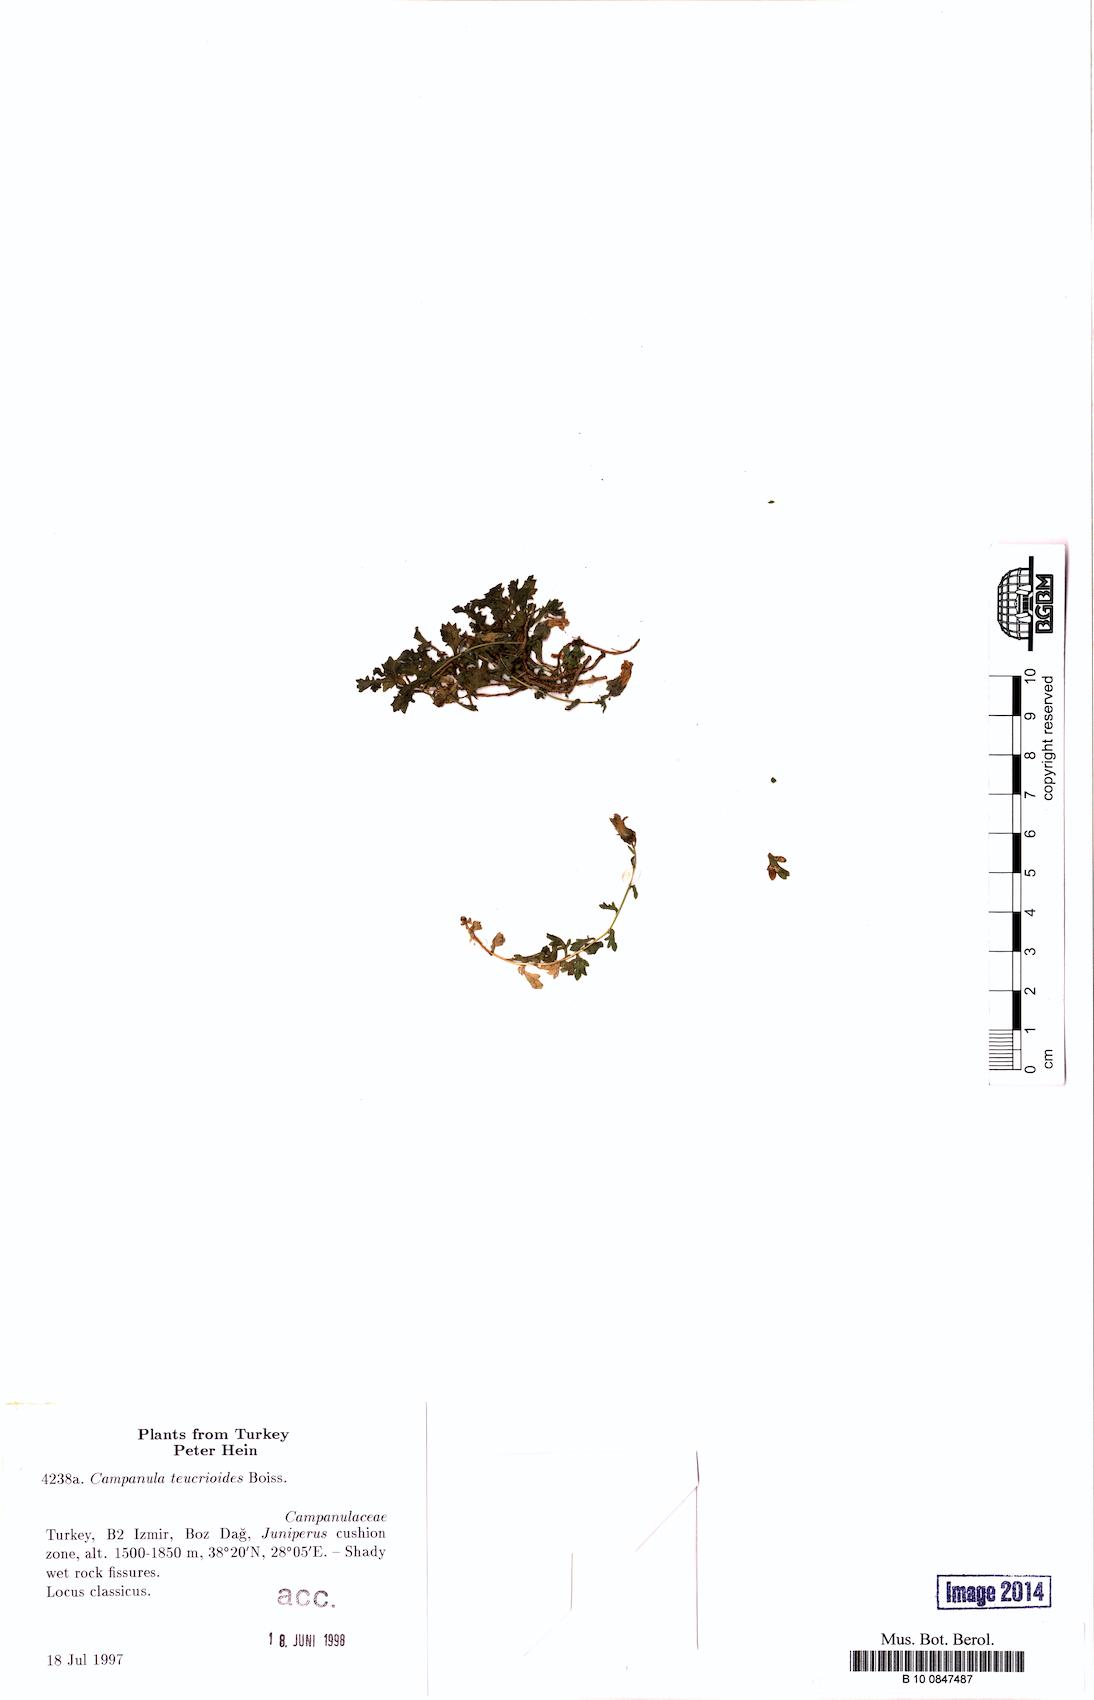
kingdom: Plantae
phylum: Tracheophyta
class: Magnoliopsida
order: Asterales
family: Campanulaceae
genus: Campanula
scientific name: Campanula teucrioides
